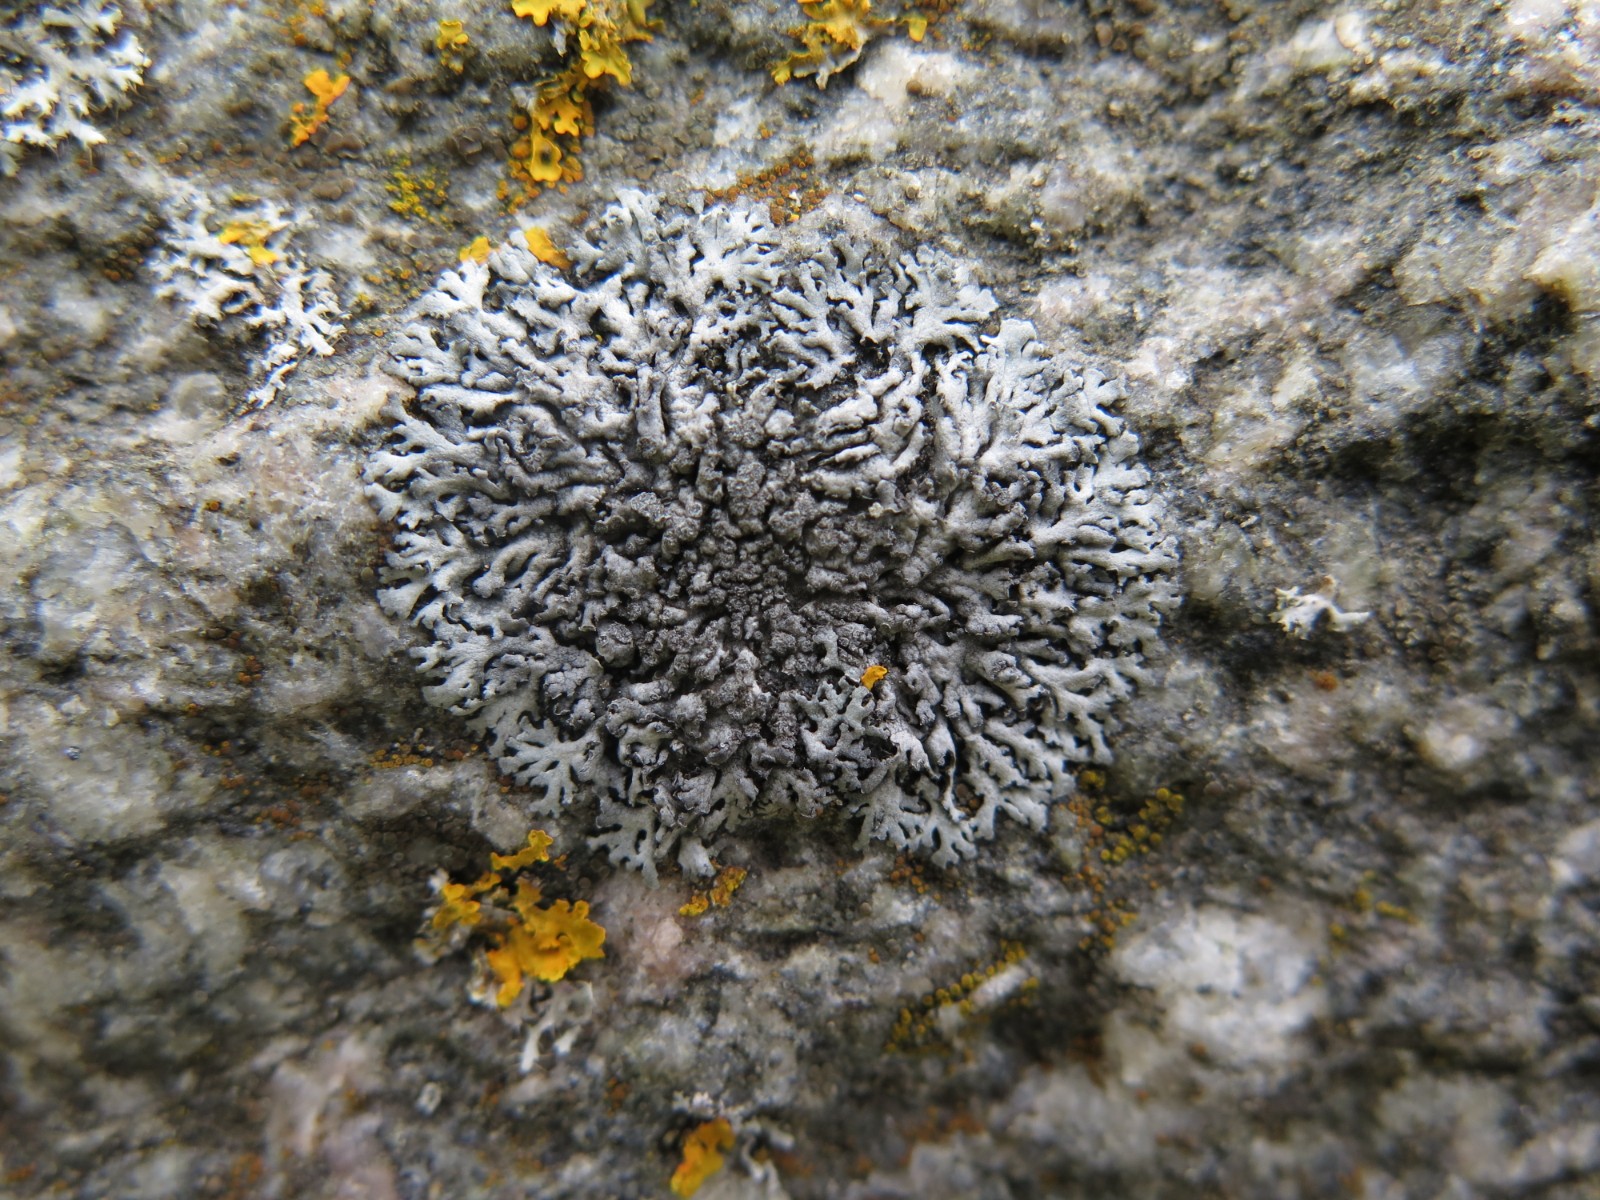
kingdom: Fungi
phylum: Ascomycota
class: Lecanoromycetes
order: Caliciales
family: Physciaceae
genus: Physcia
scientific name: Physcia dubia
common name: fuglestens-rosetlav
